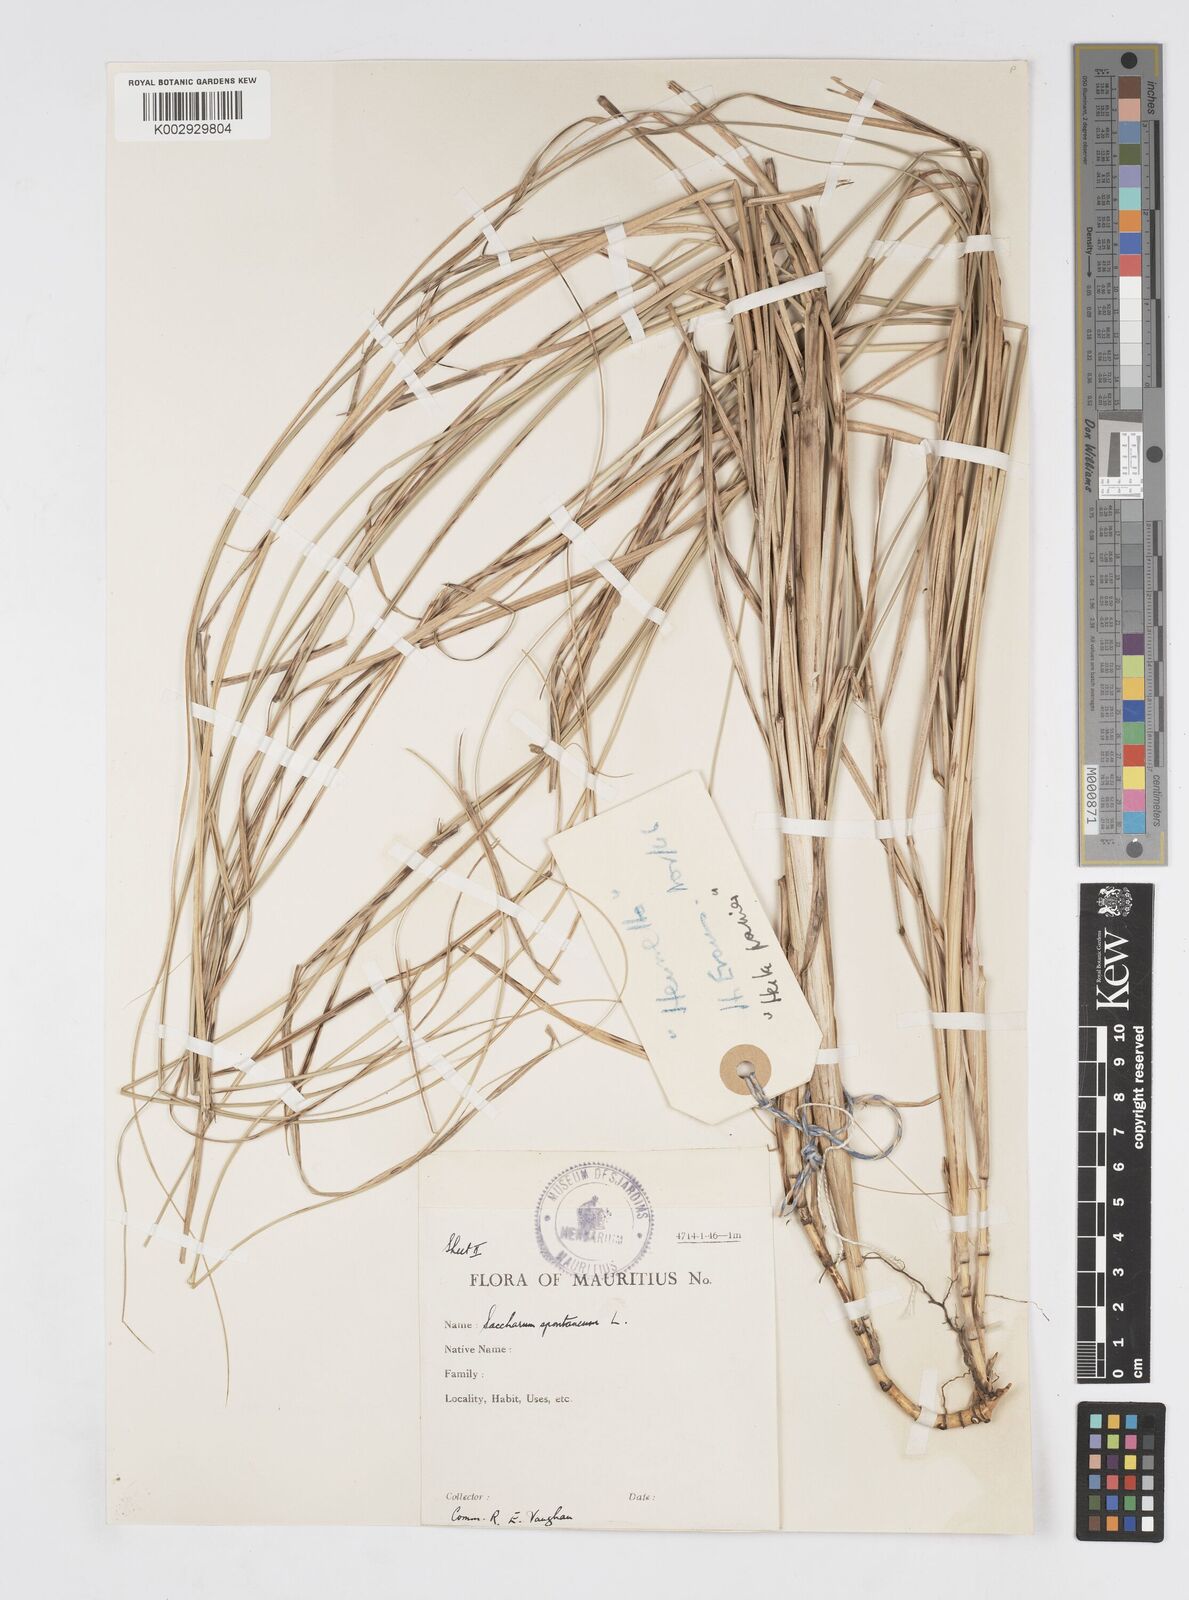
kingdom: Plantae
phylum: Tracheophyta
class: Liliopsida
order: Poales
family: Poaceae
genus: Saccharum
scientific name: Saccharum spontaneum
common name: Wild sugarcane
